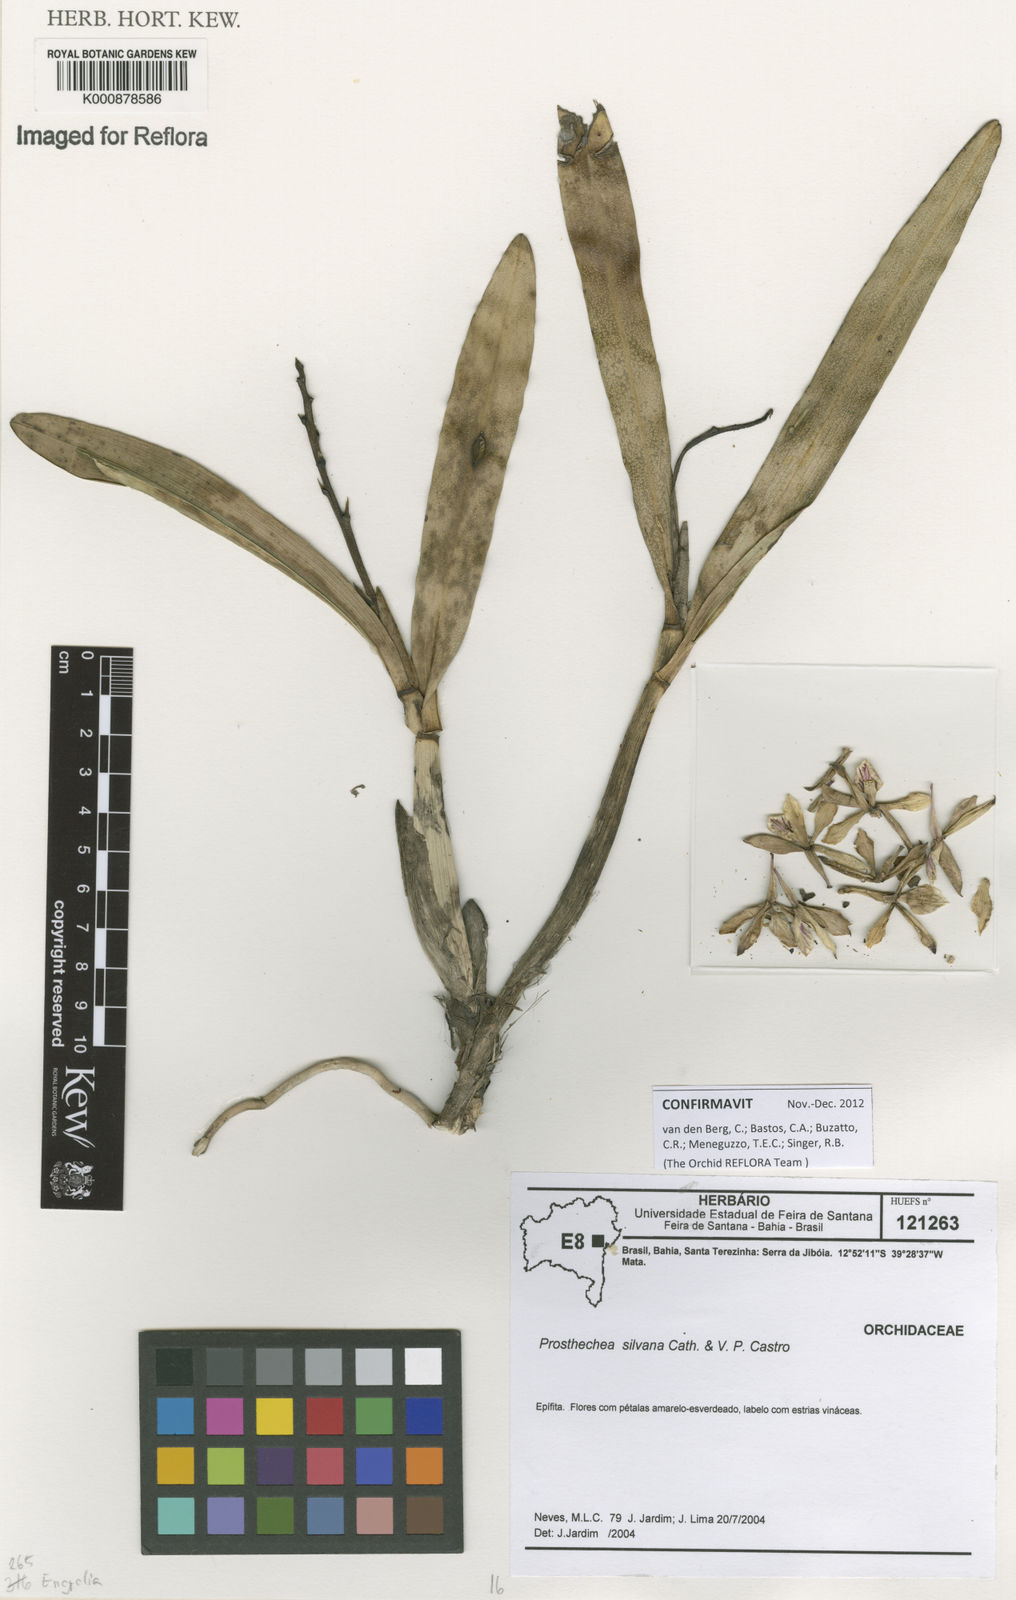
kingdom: Plantae
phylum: Tracheophyta
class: Liliopsida
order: Asparagales
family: Orchidaceae
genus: Prosthechea
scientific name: Prosthechea silvana
